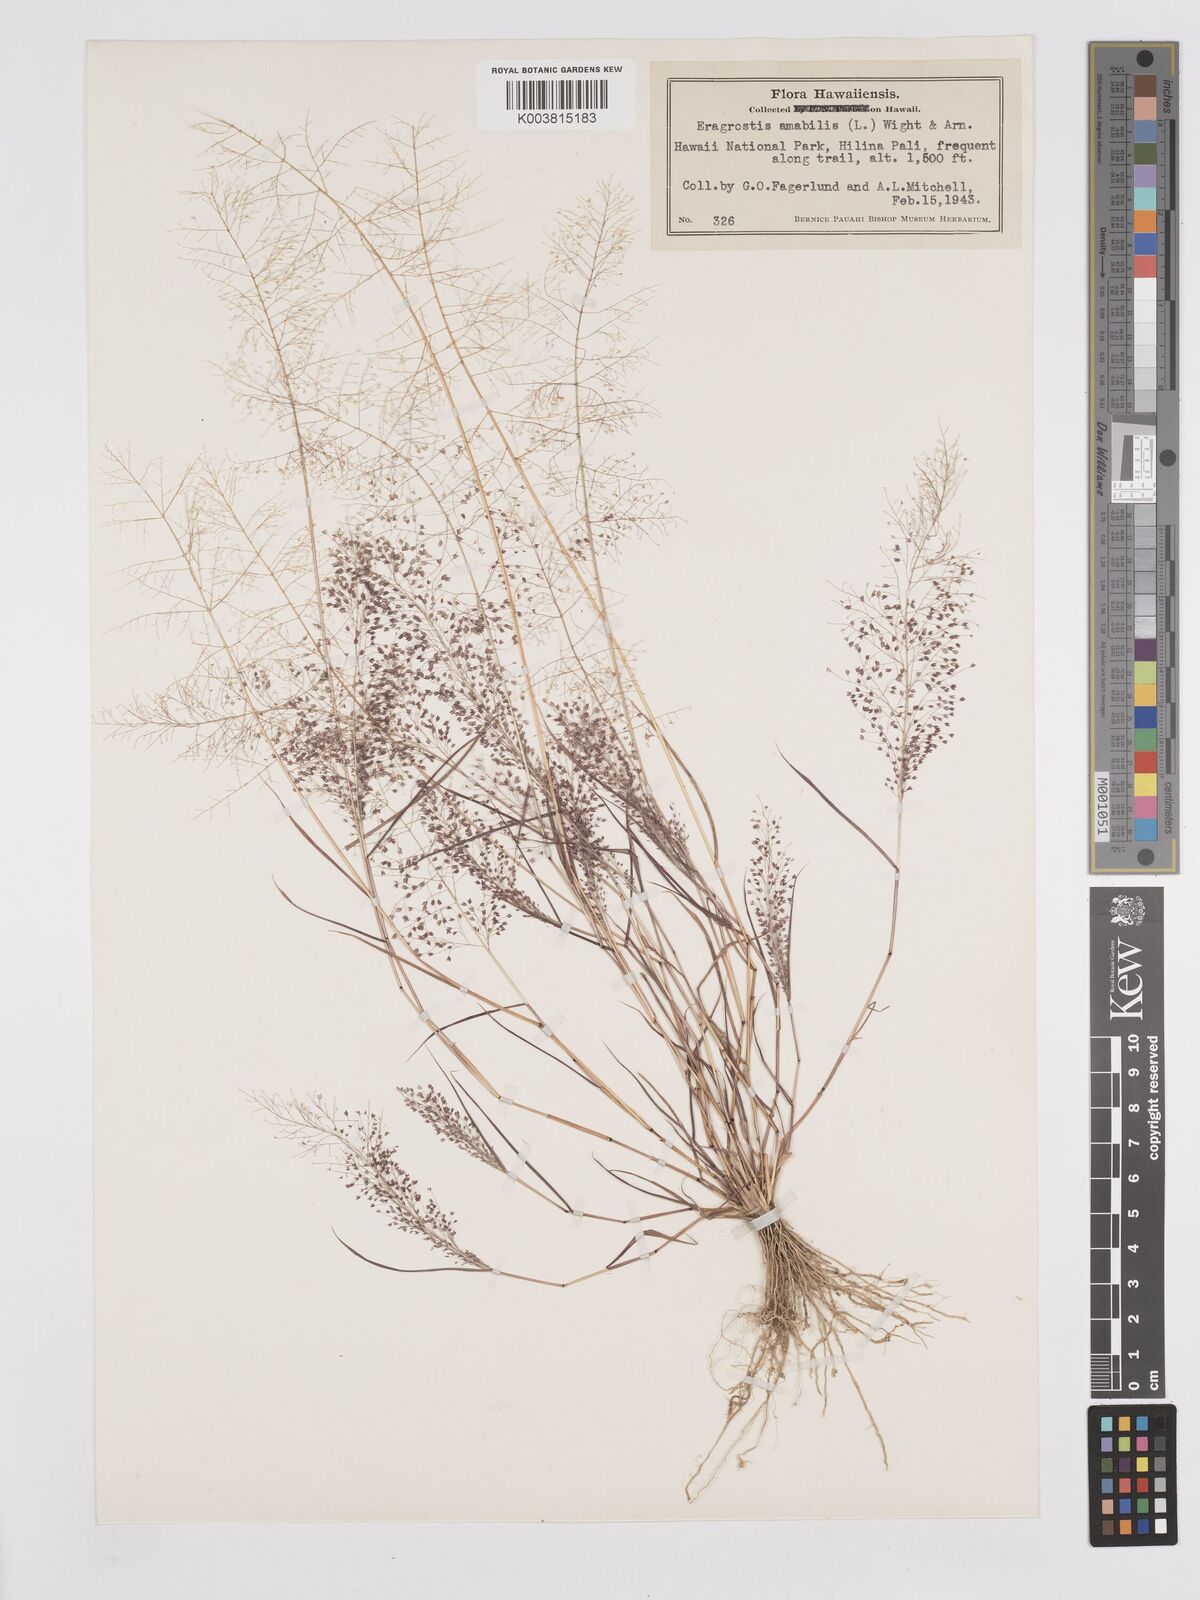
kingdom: Plantae
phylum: Tracheophyta
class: Liliopsida
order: Poales
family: Poaceae
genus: Eragrostis
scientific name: Eragrostis tenella
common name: Japanese lovegrass
